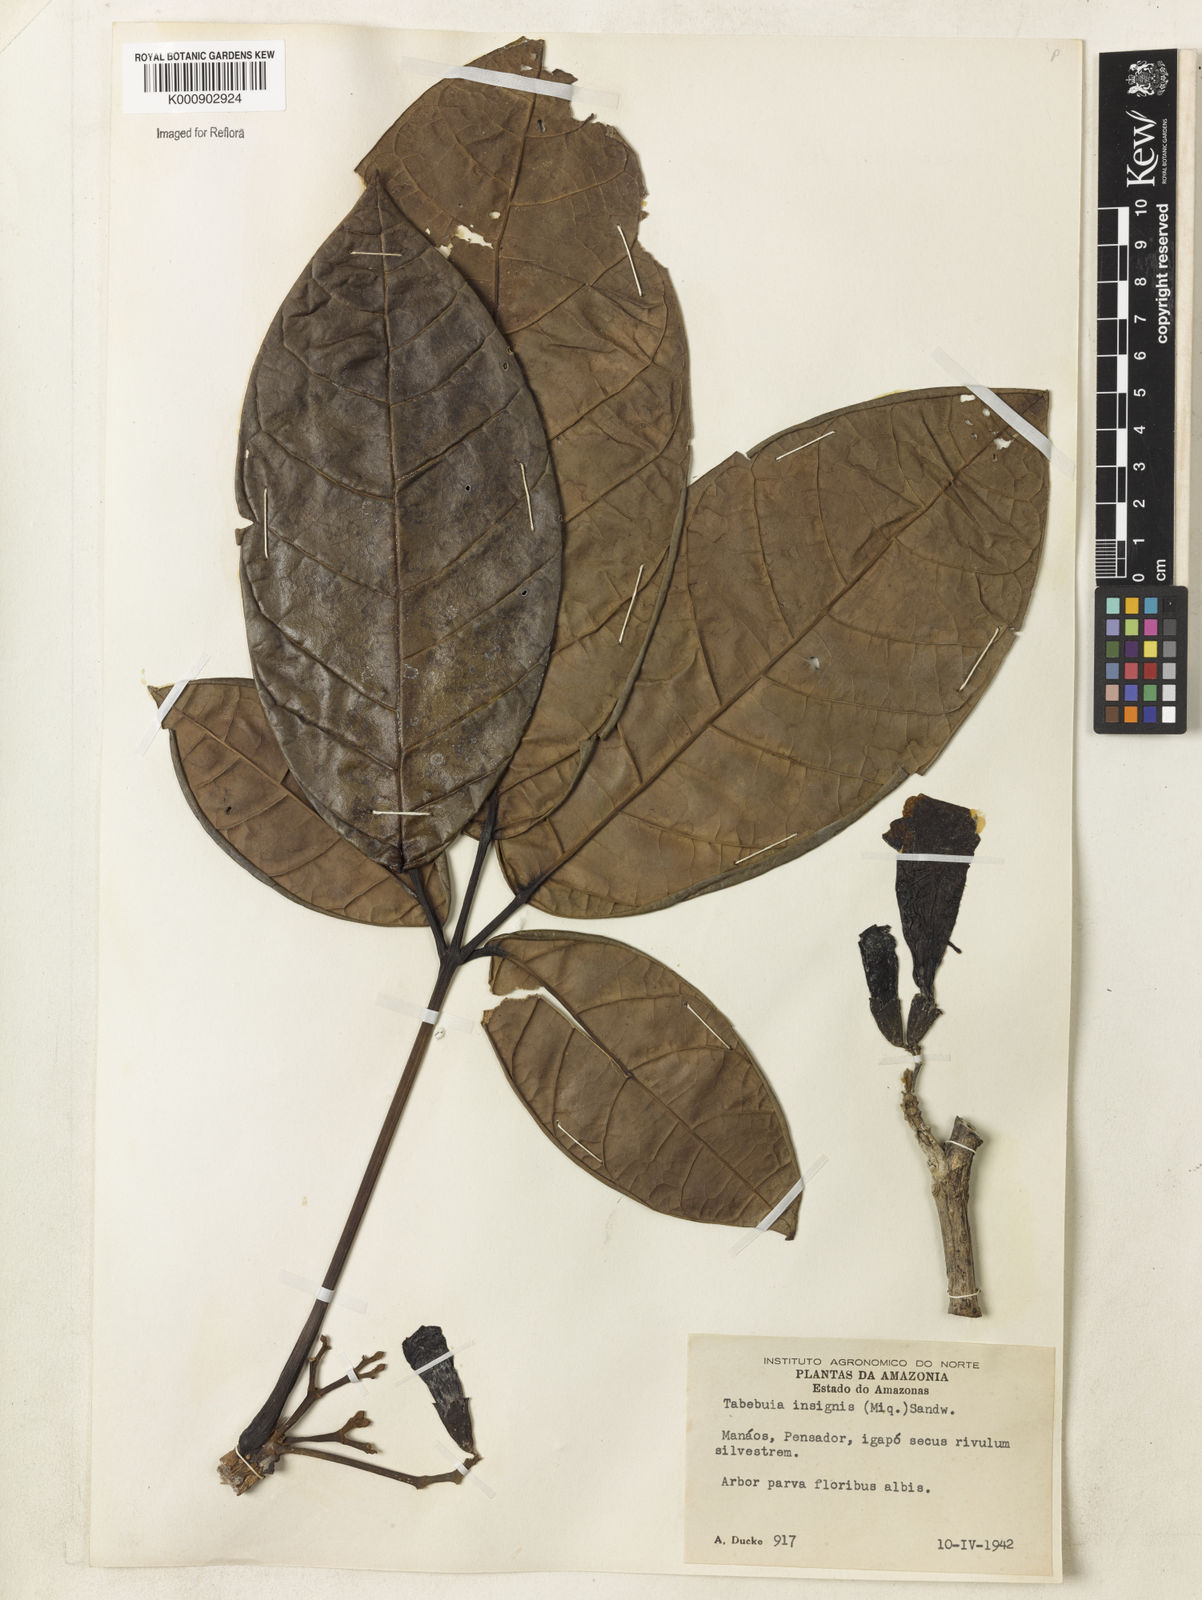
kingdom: Plantae
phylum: Tracheophyta
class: Magnoliopsida
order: Lamiales
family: Bignoniaceae
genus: Tabebuia
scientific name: Tabebuia insignis
